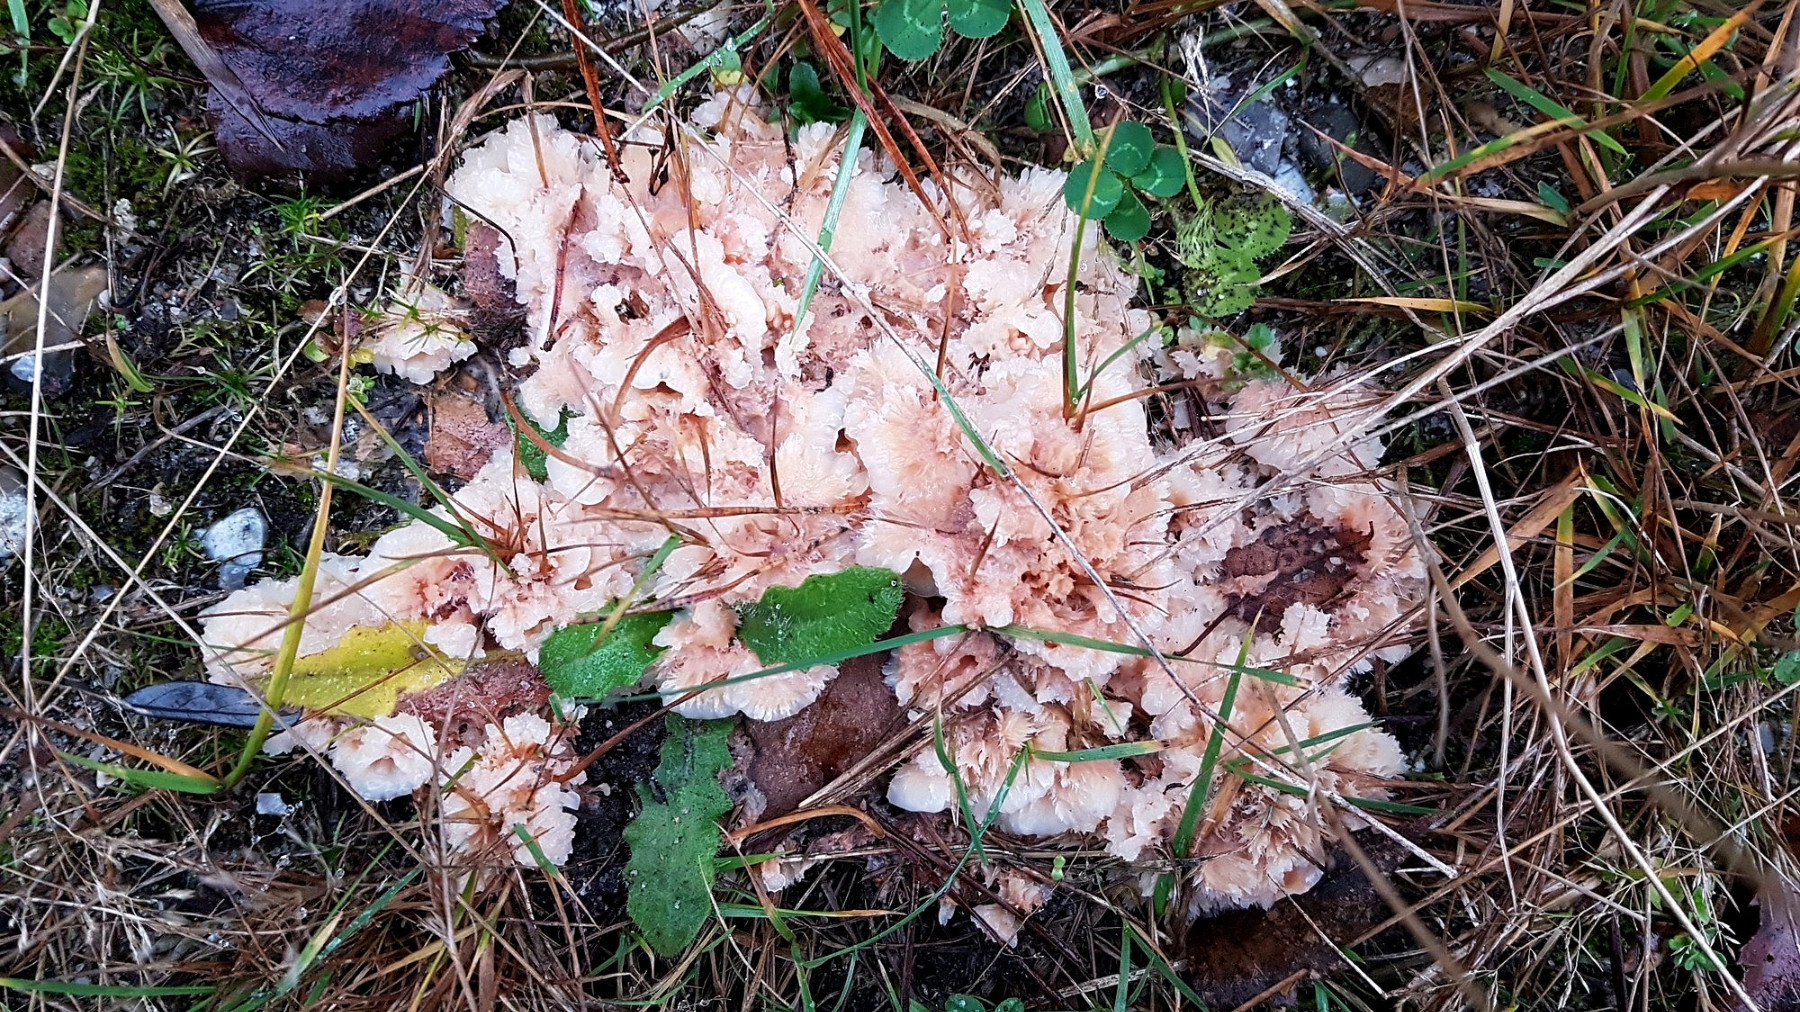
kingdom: Fungi
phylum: Basidiomycota
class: Agaricomycetes
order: Polyporales
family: Meruliaceae
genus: Phlebia
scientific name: Phlebia tremellosa
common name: bævrende åresvamp
